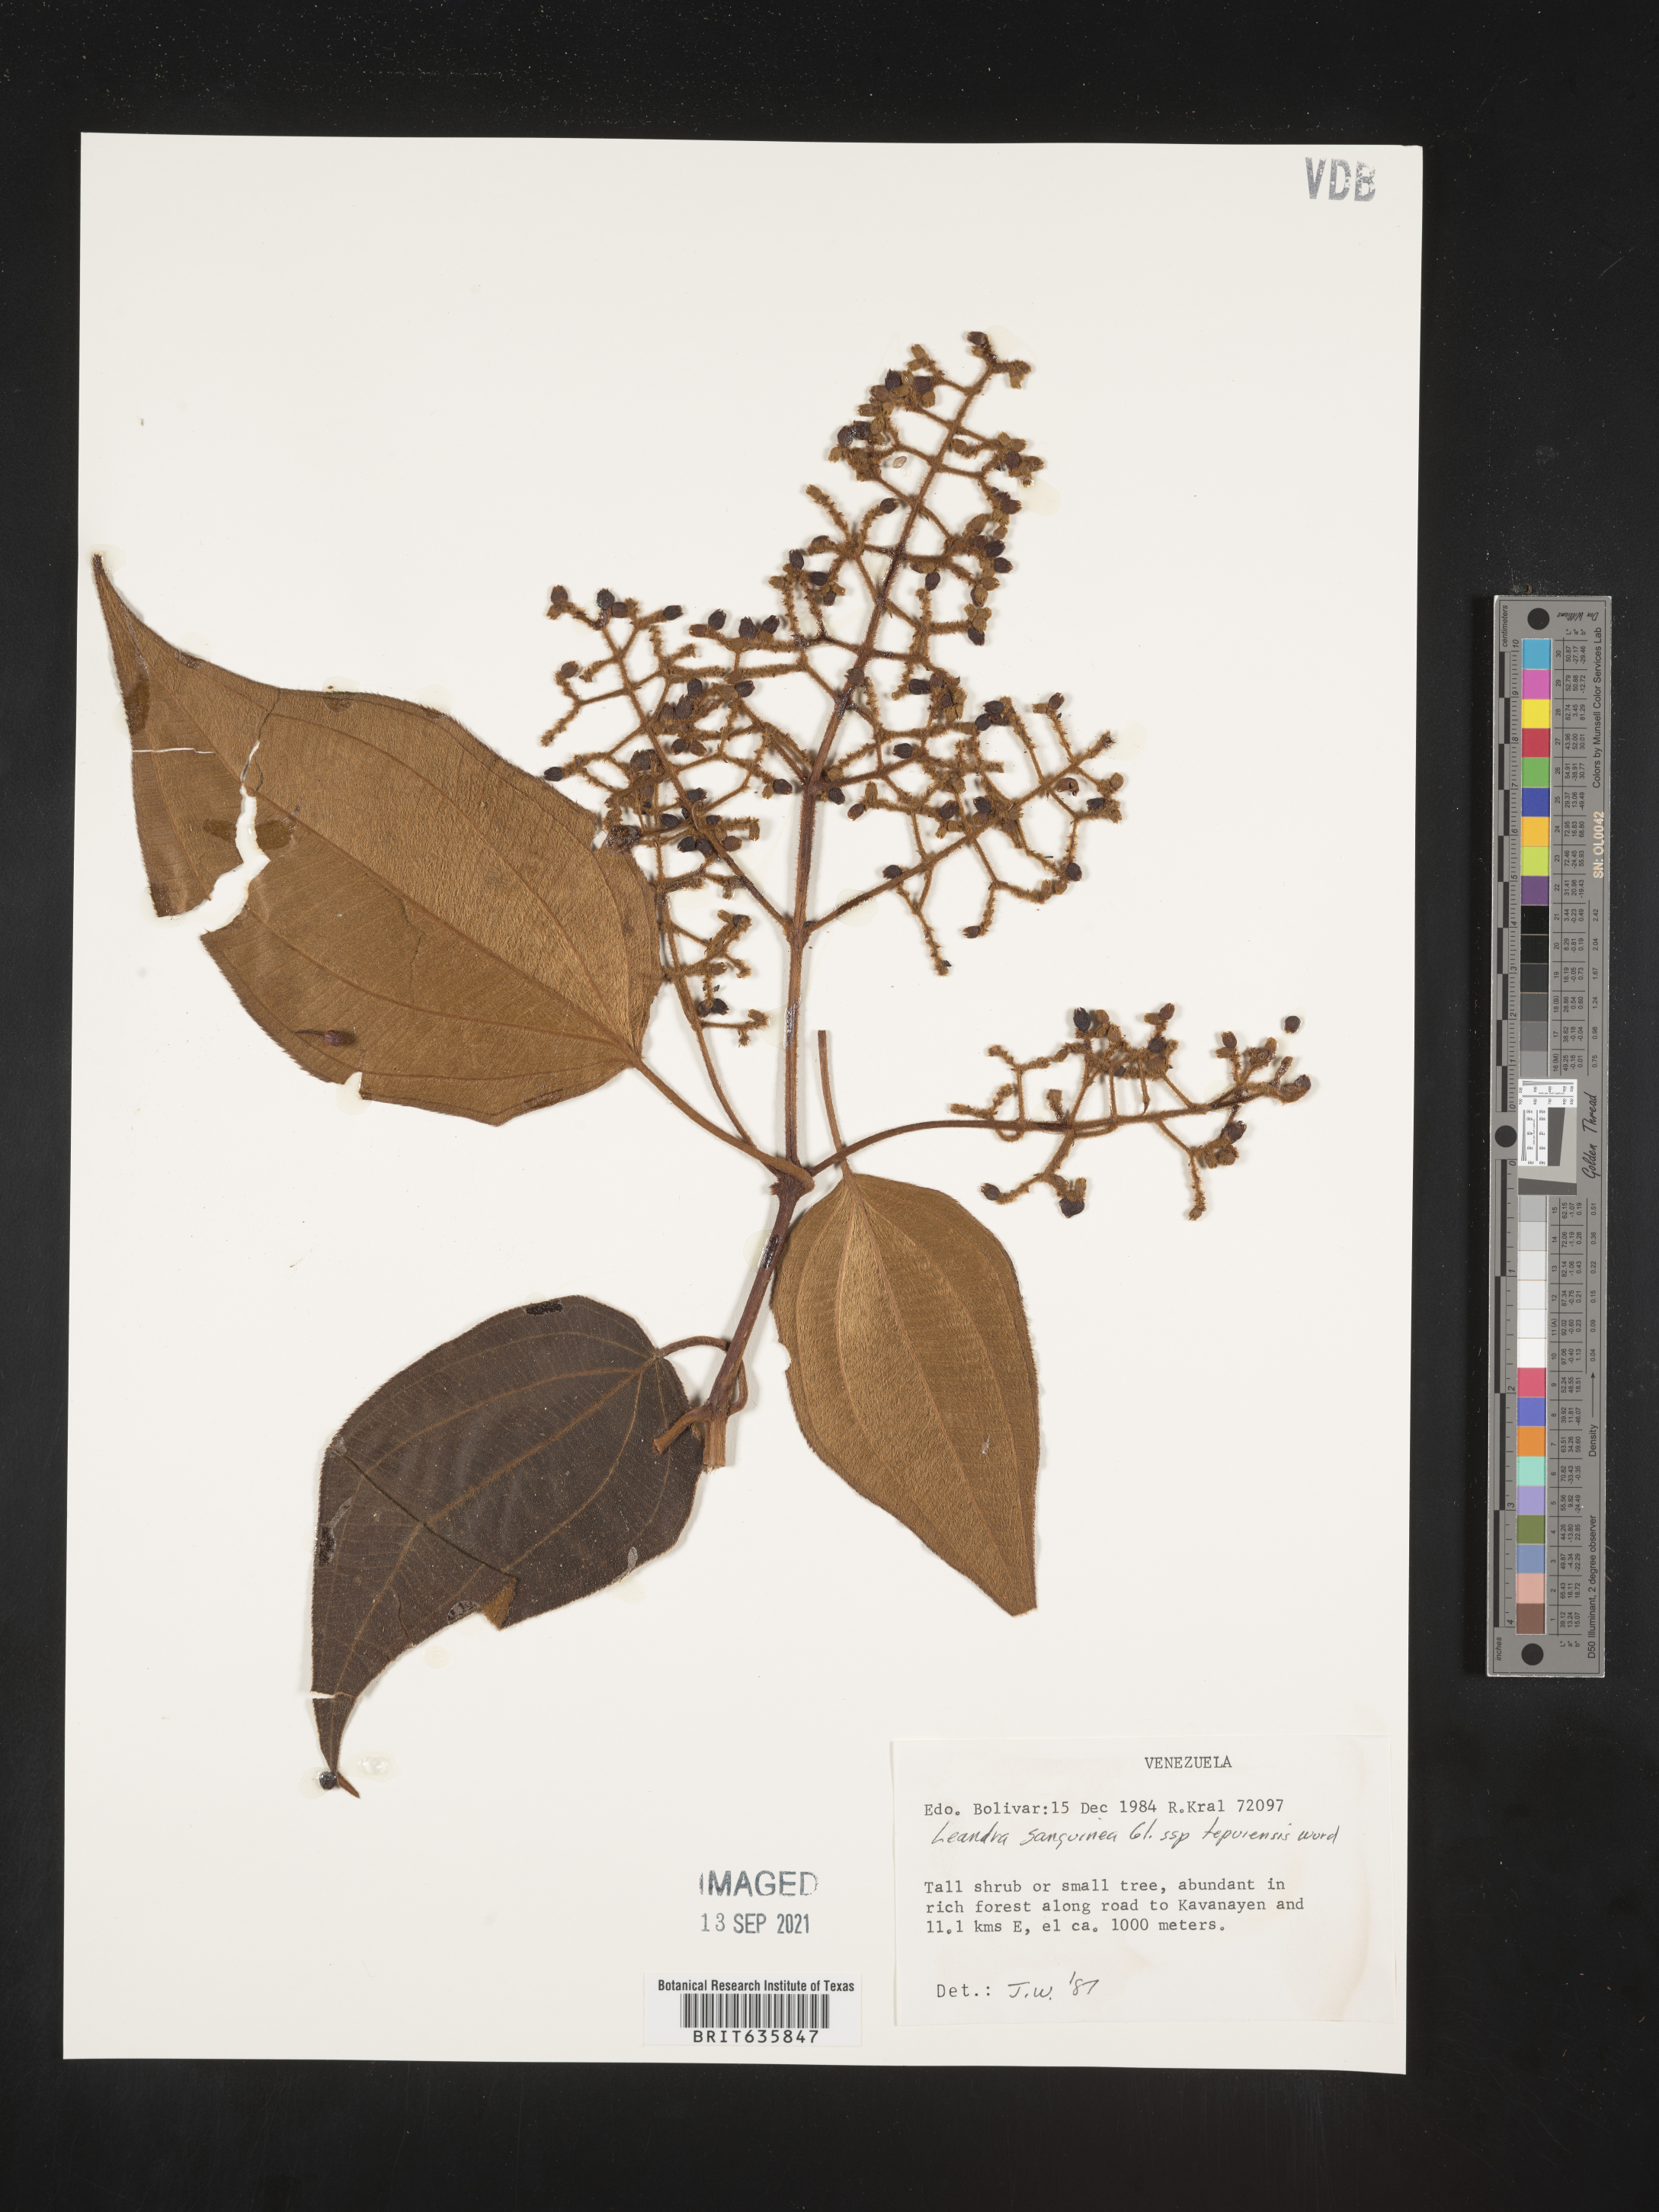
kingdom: Plantae
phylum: Tracheophyta
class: Magnoliopsida
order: Myrtales
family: Melastomataceae
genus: Miconia
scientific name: Miconia
